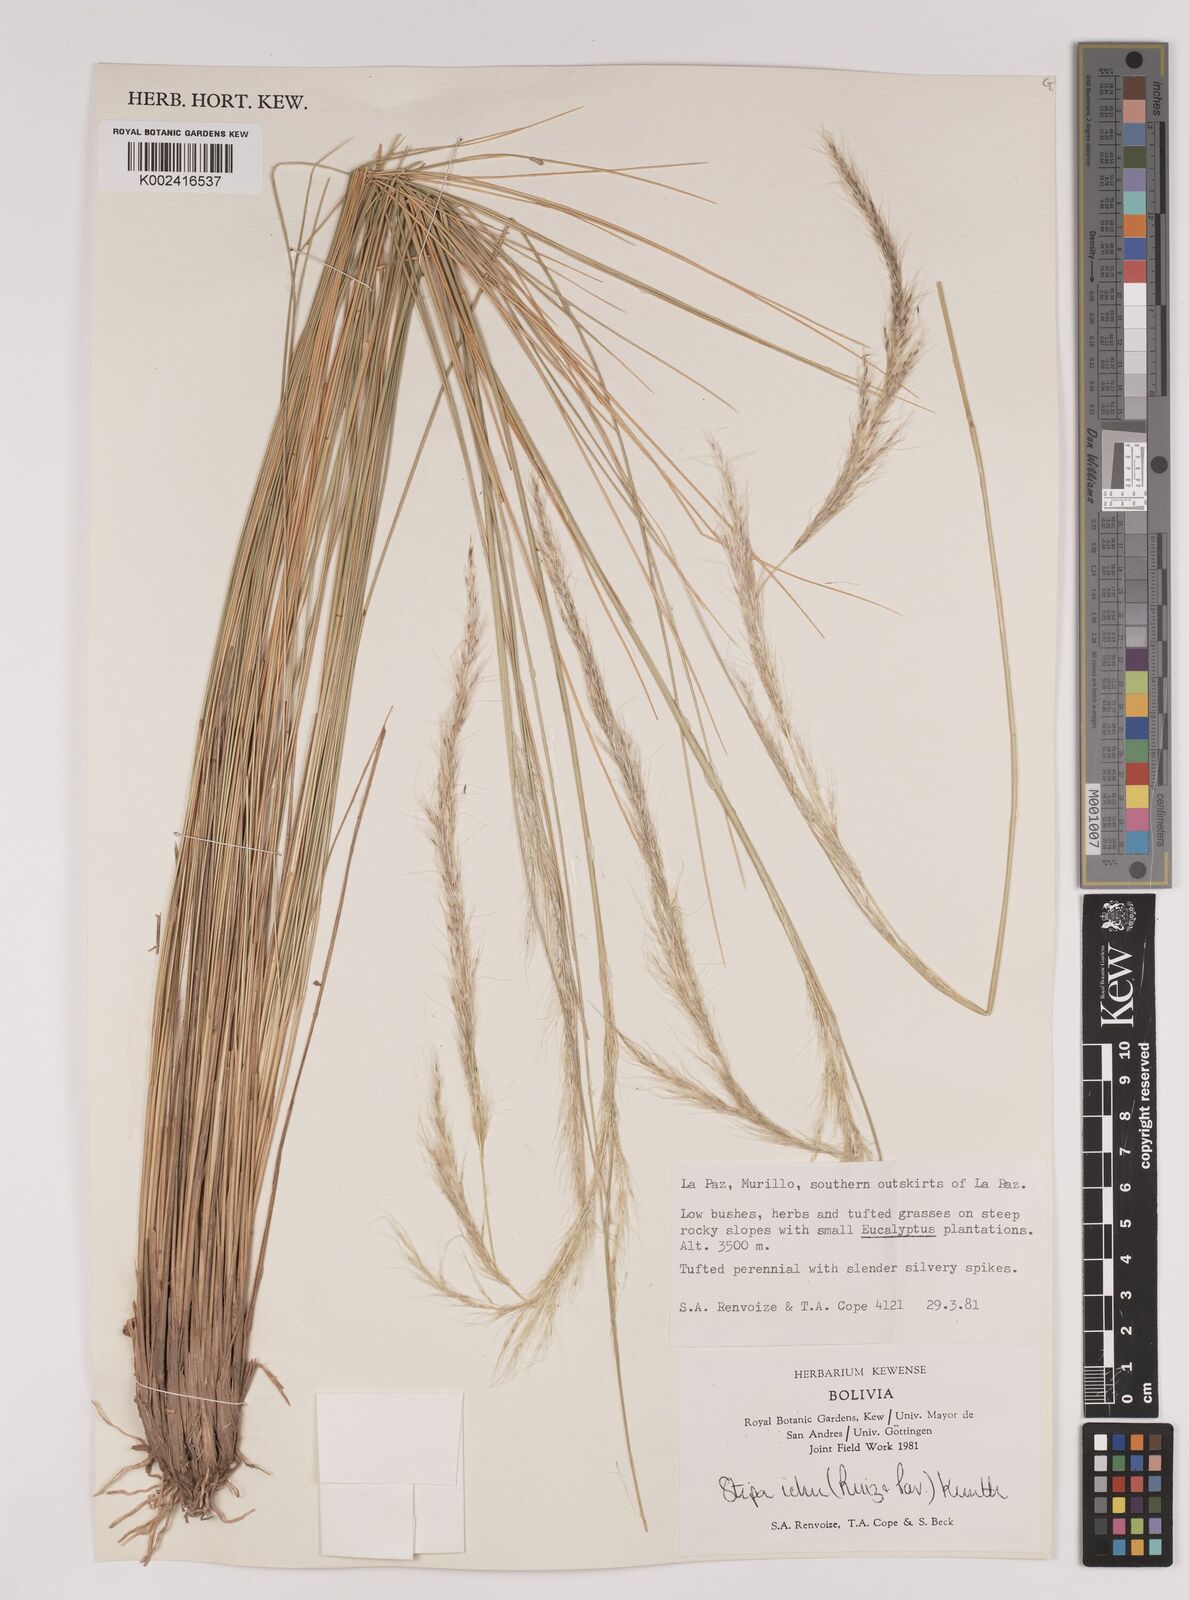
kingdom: Plantae
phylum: Tracheophyta
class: Liliopsida
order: Poales
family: Poaceae
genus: Stipa
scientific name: Stipa
